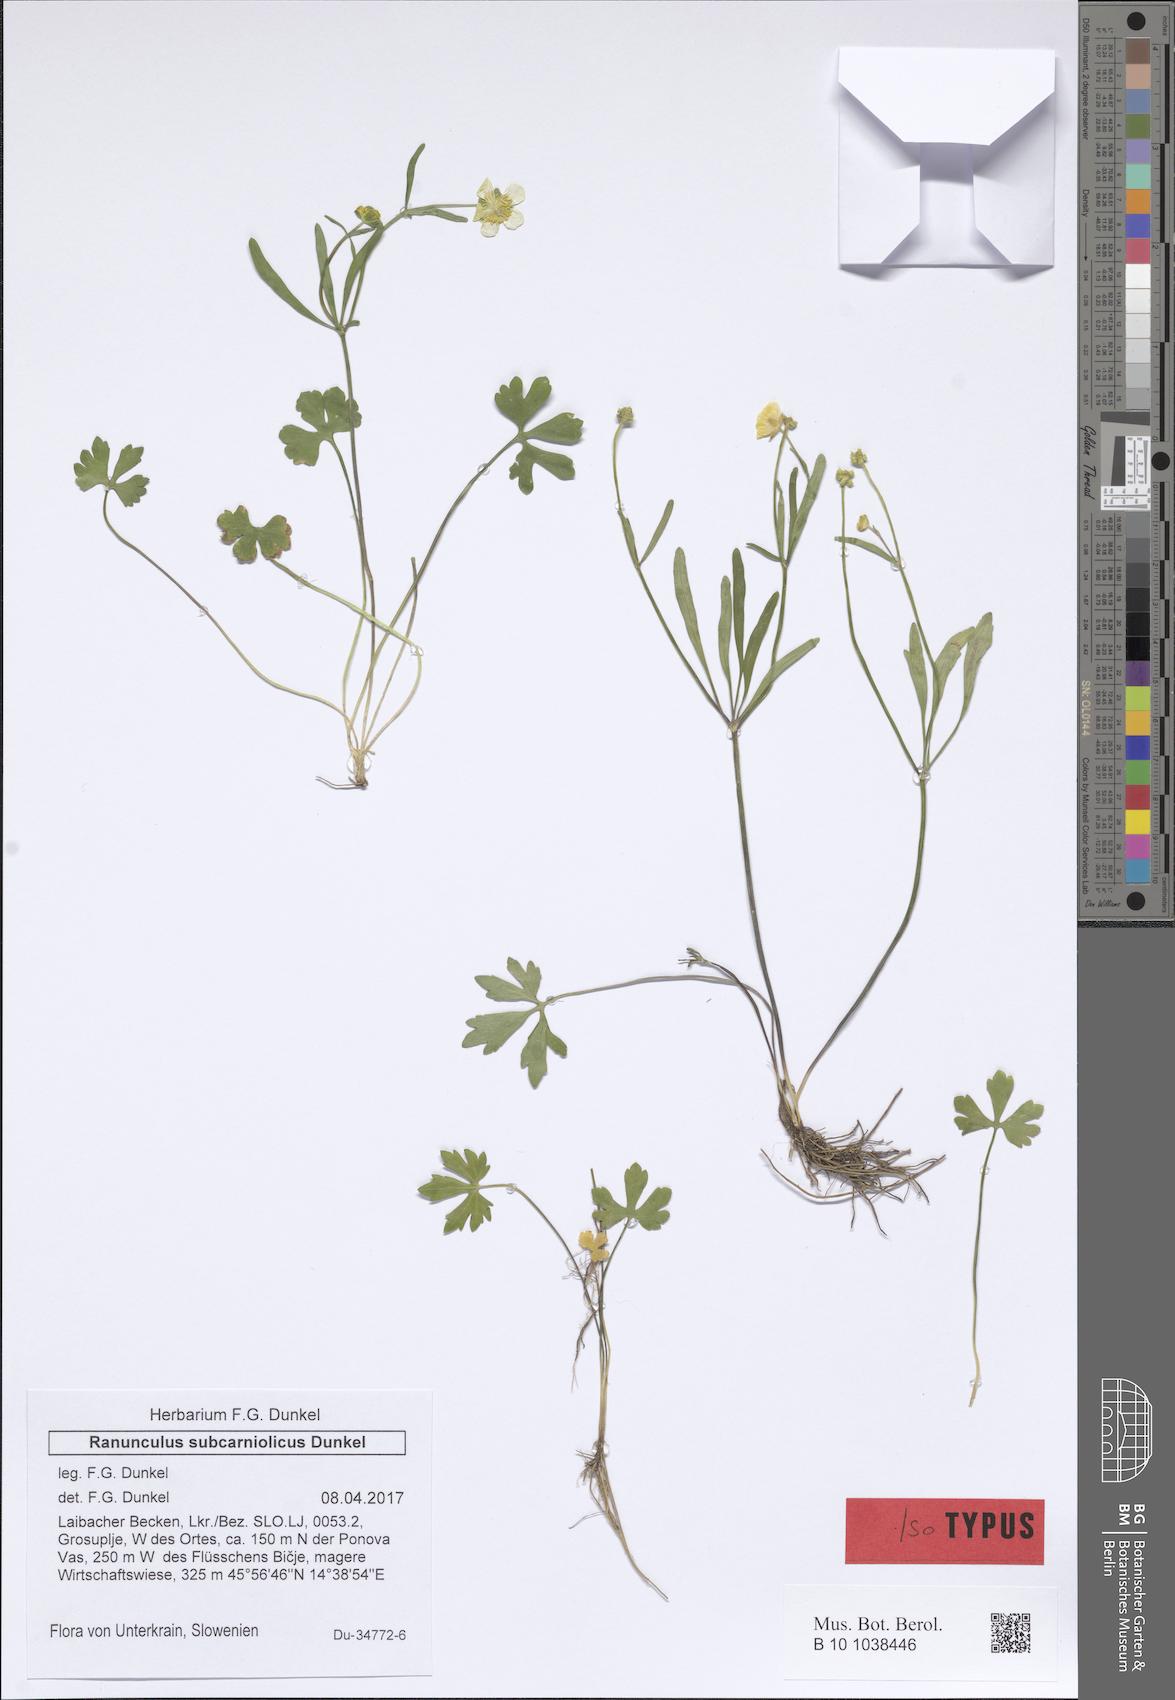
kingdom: Plantae
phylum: Tracheophyta
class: Magnoliopsida
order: Ranunculales
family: Ranunculaceae
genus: Ranunculus
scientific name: Ranunculus notabilis
